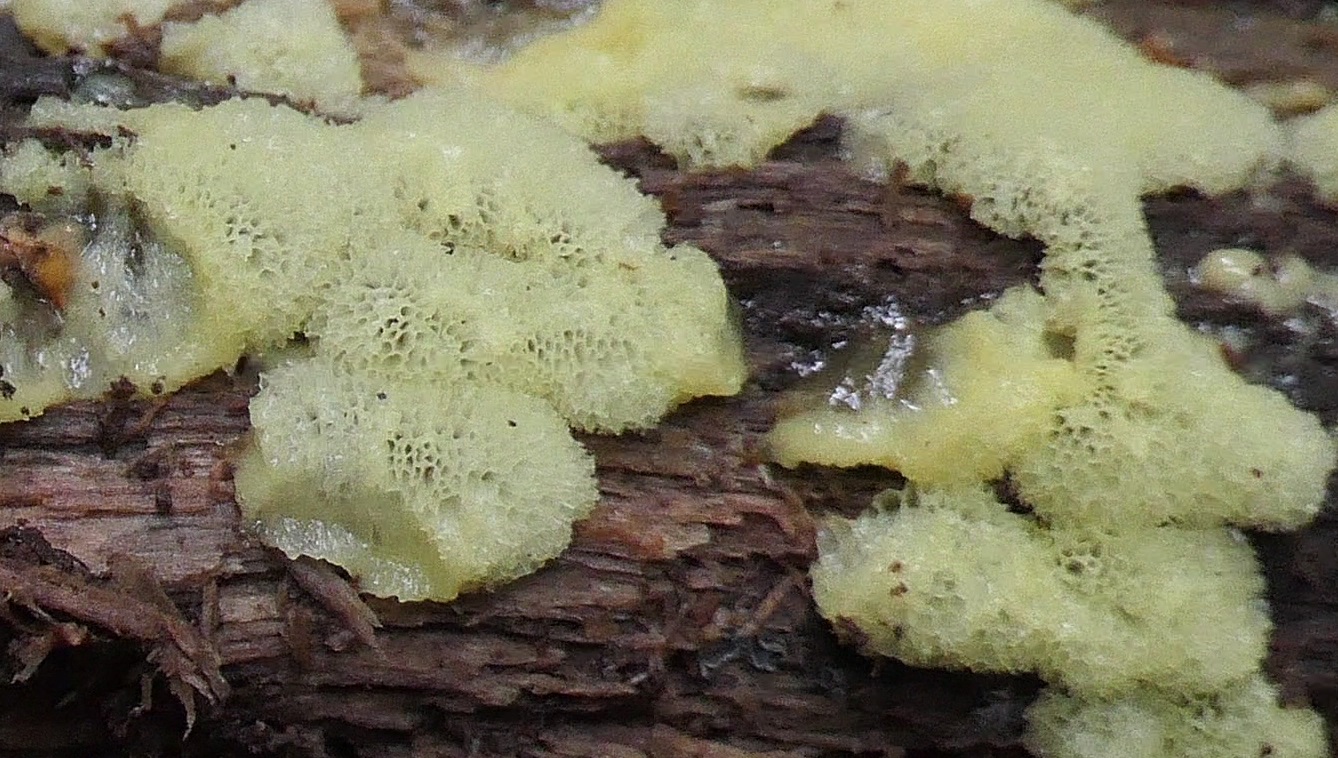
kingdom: Protozoa
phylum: Mycetozoa
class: Protosteliomycetes
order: Ceratiomyxales
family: Ceratiomyxaceae
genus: Ceratiomyxa
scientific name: Ceratiomyxa fruticulosa
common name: Honeycomb coral slime mold
